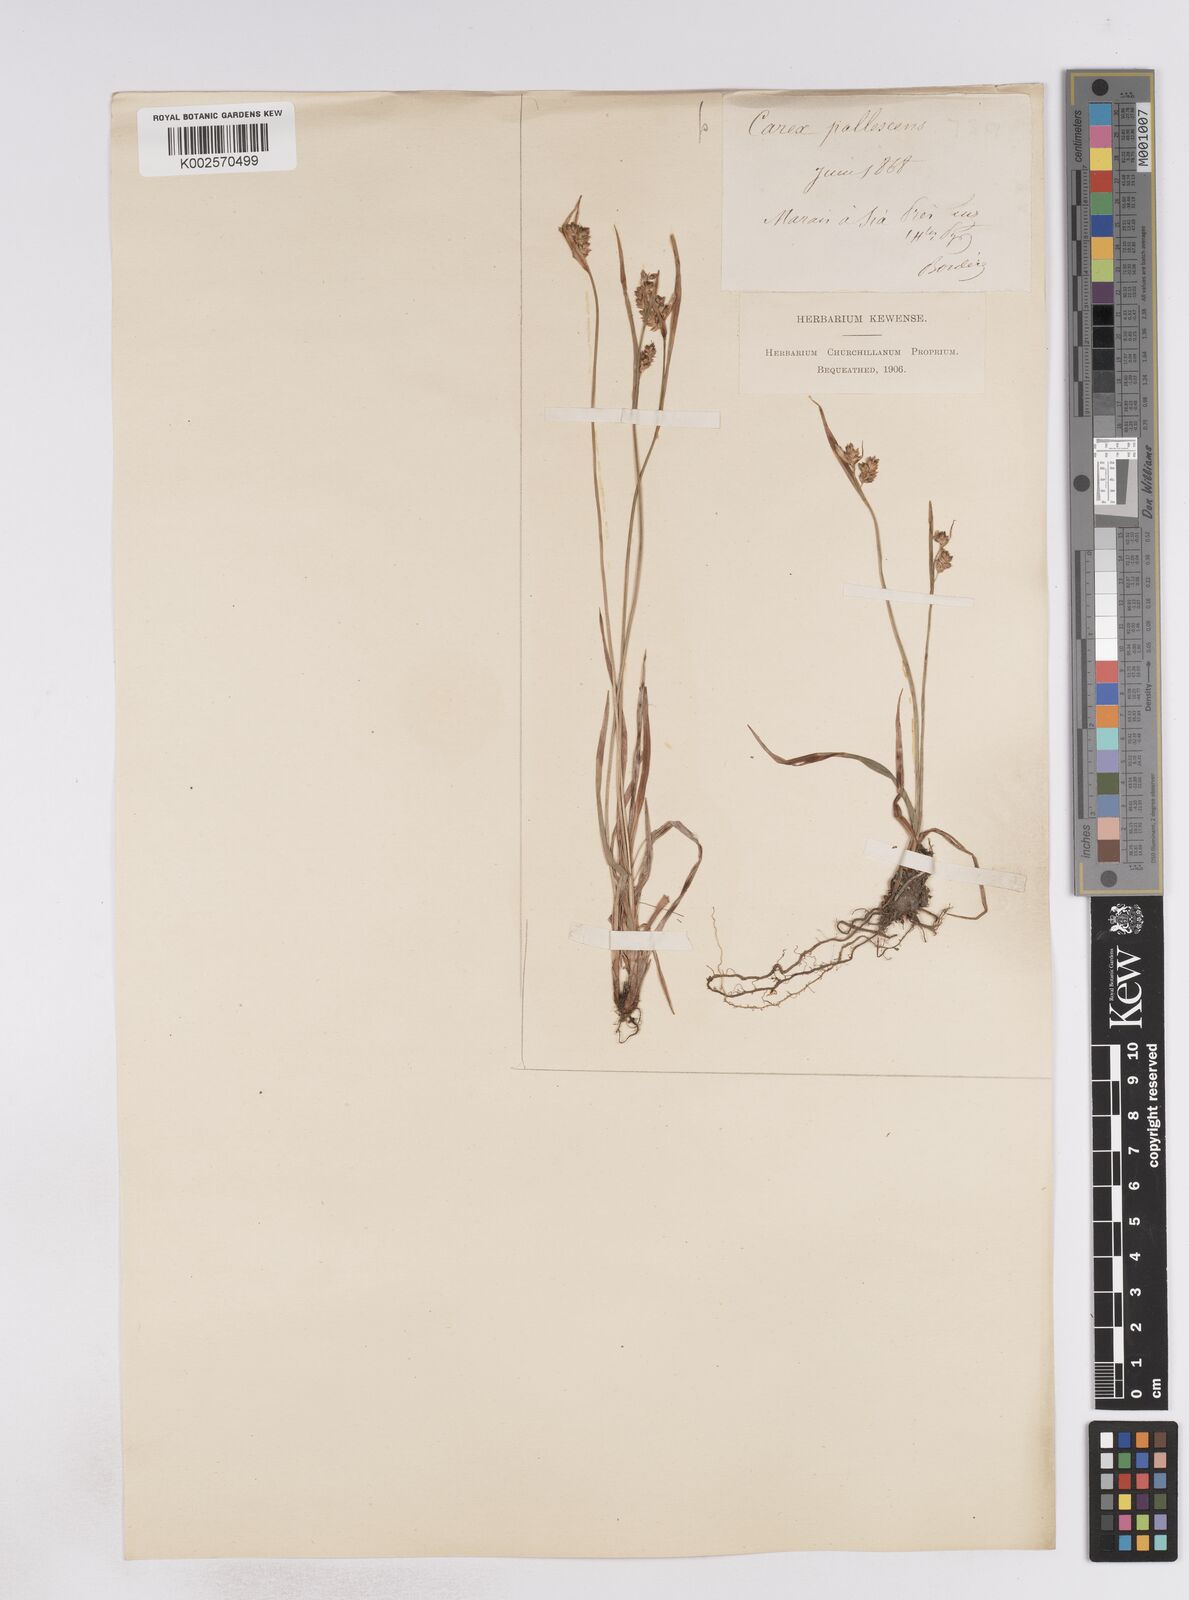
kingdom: Plantae
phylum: Tracheophyta
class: Liliopsida
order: Poales
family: Cyperaceae
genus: Carex
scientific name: Carex pallescens
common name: Pale sedge
